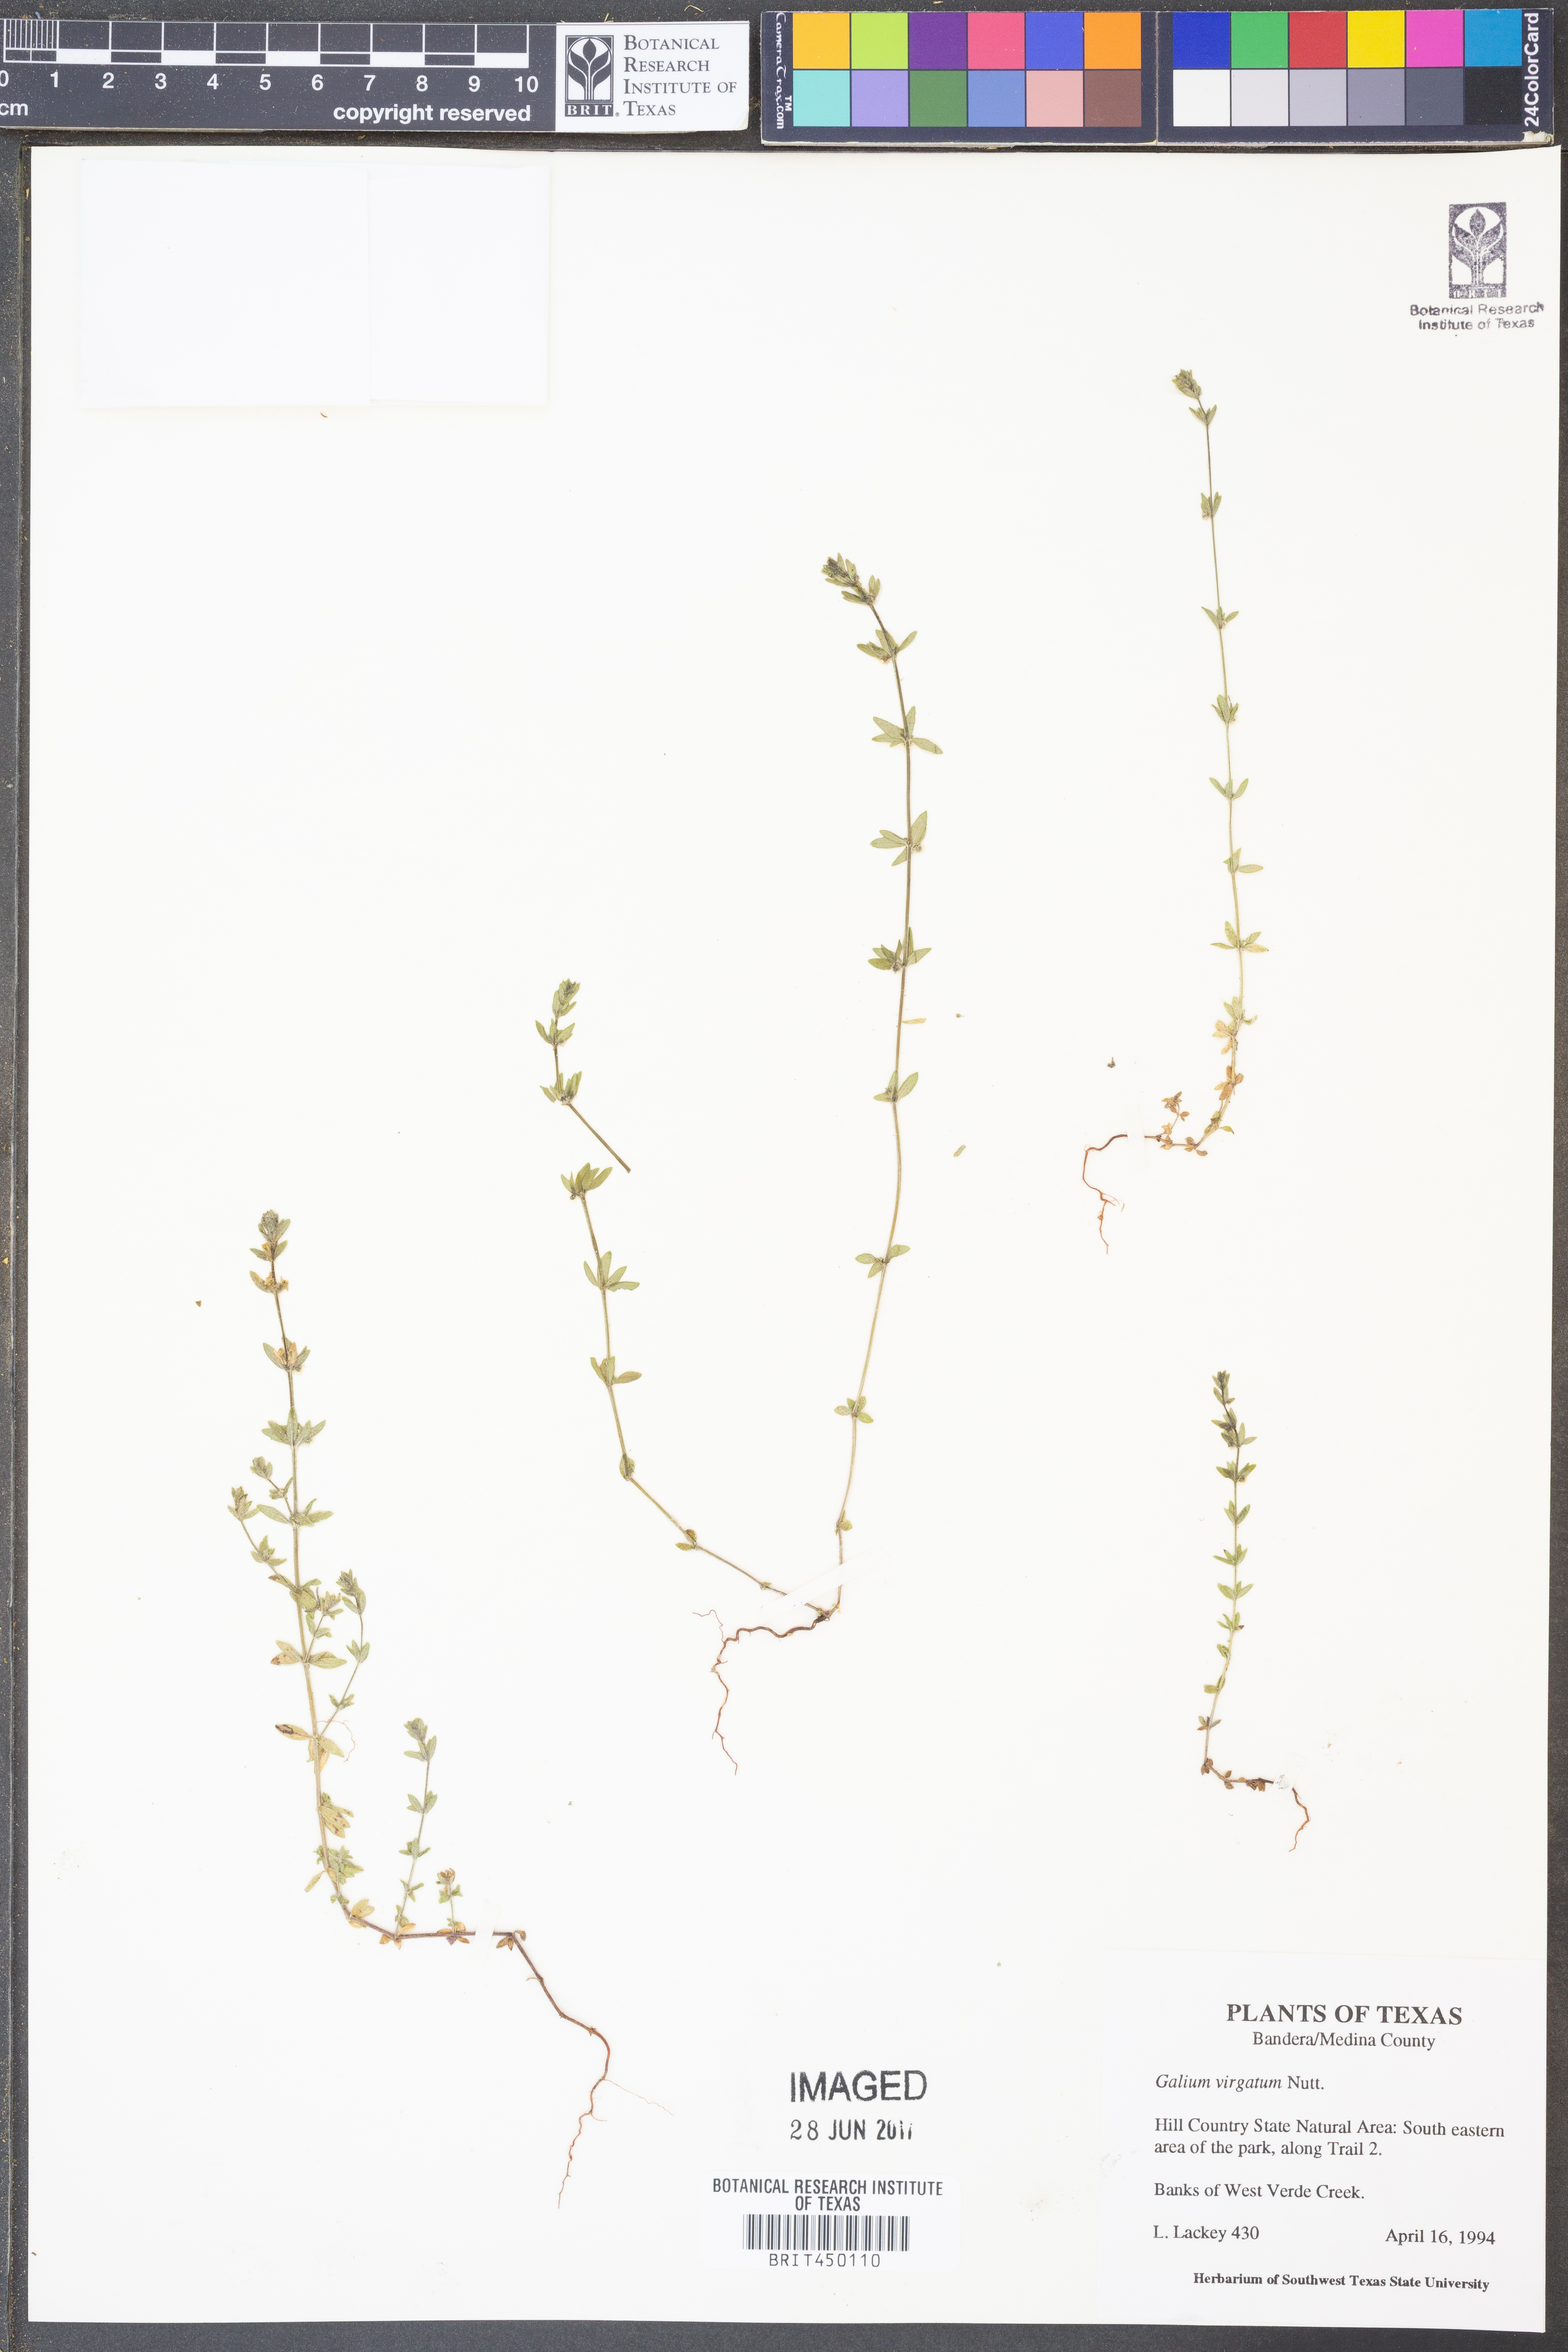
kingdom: Plantae
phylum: Tracheophyta
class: Magnoliopsida
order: Gentianales
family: Rubiaceae
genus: Galium
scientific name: Galium virgatum
